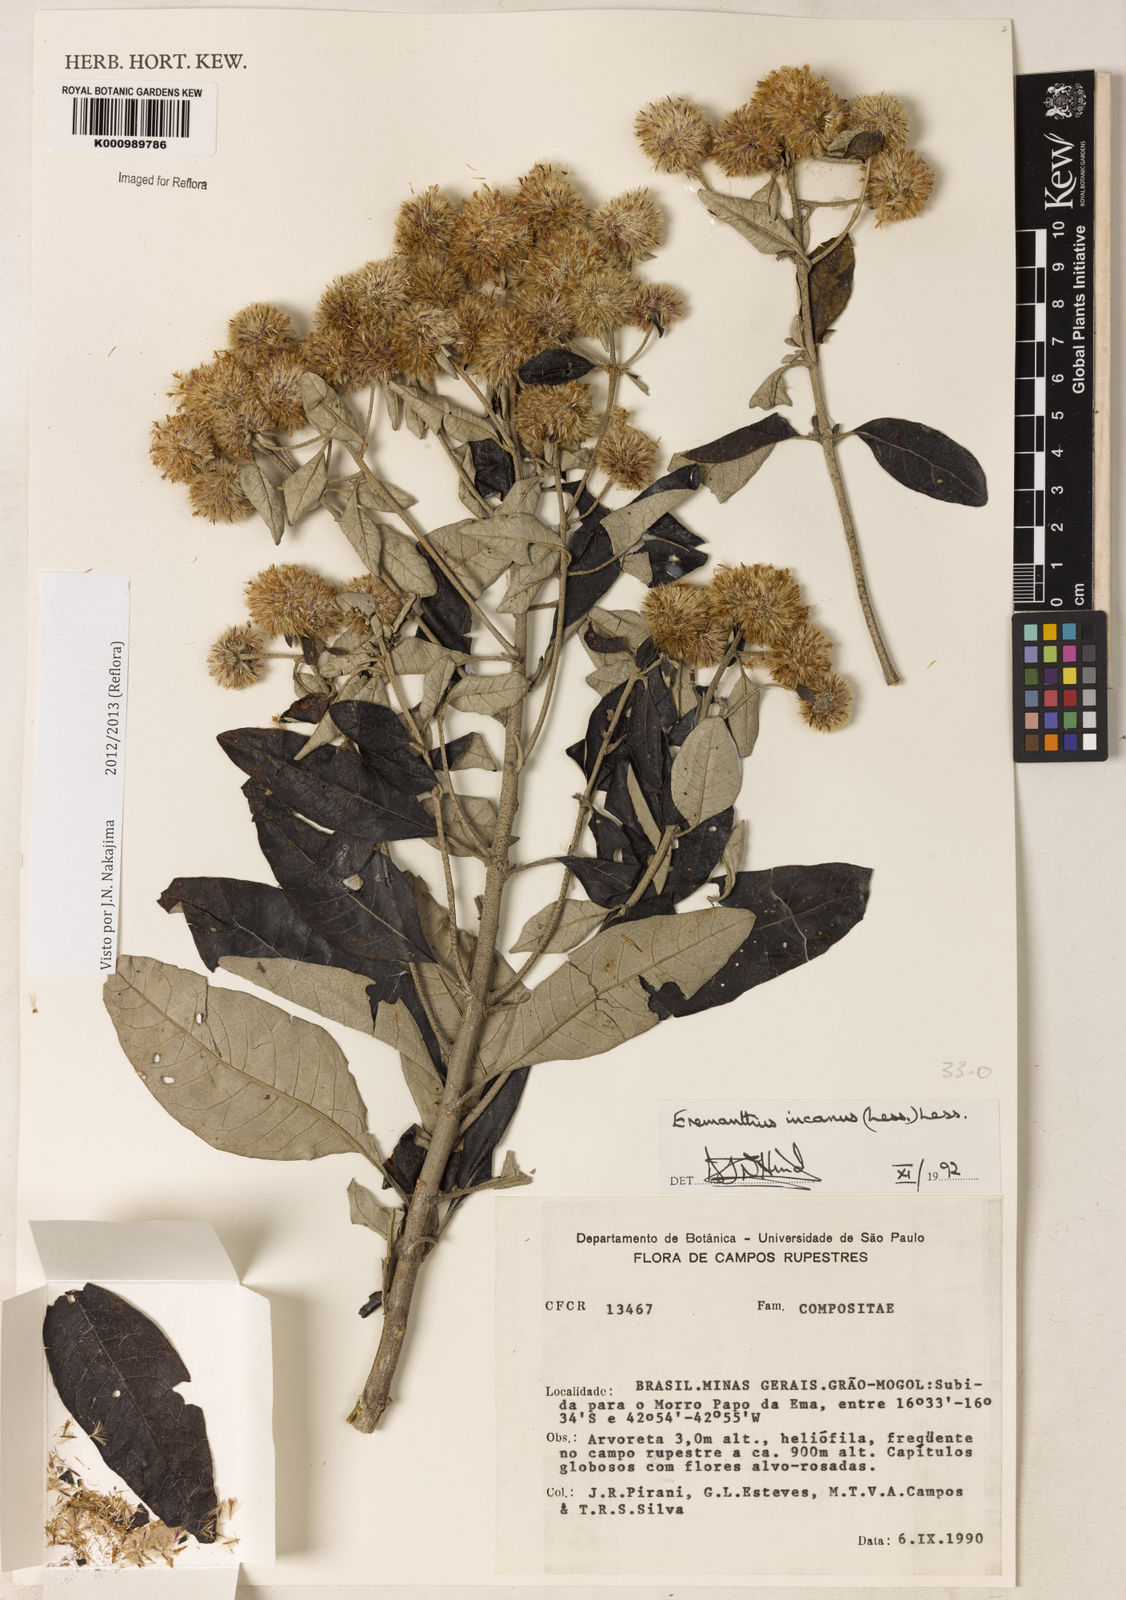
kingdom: Plantae
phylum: Tracheophyta
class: Magnoliopsida
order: Asterales
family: Asteraceae
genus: Eremanthus
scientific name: Eremanthus incanus
